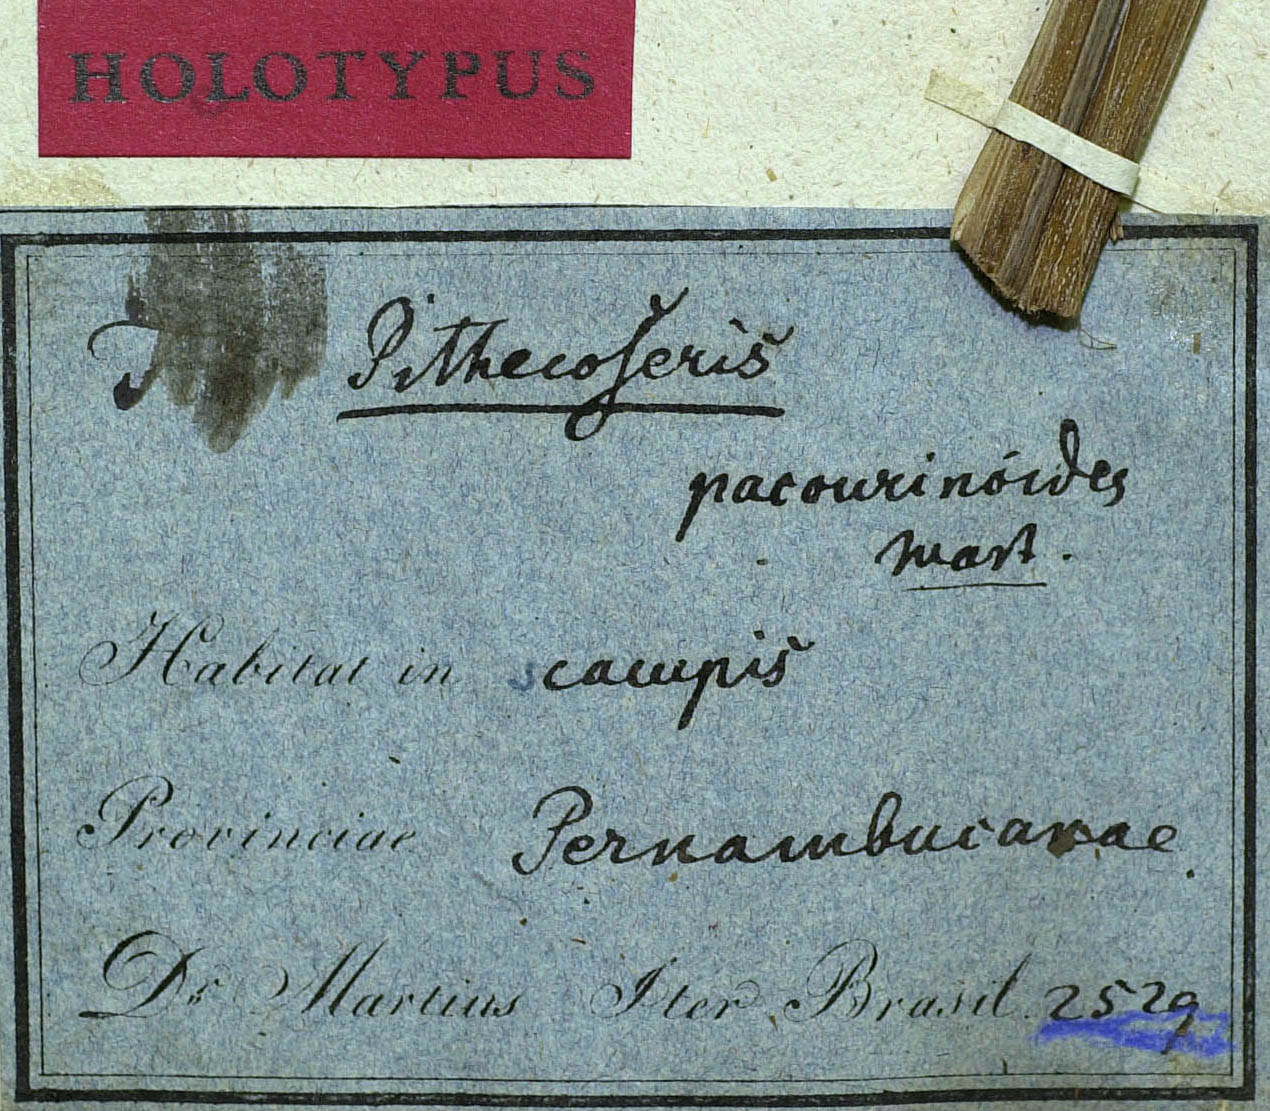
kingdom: Plantae
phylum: Tracheophyta
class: Magnoliopsida
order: Asterales
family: Asteraceae
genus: Chresta
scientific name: Chresta pacourinoides
